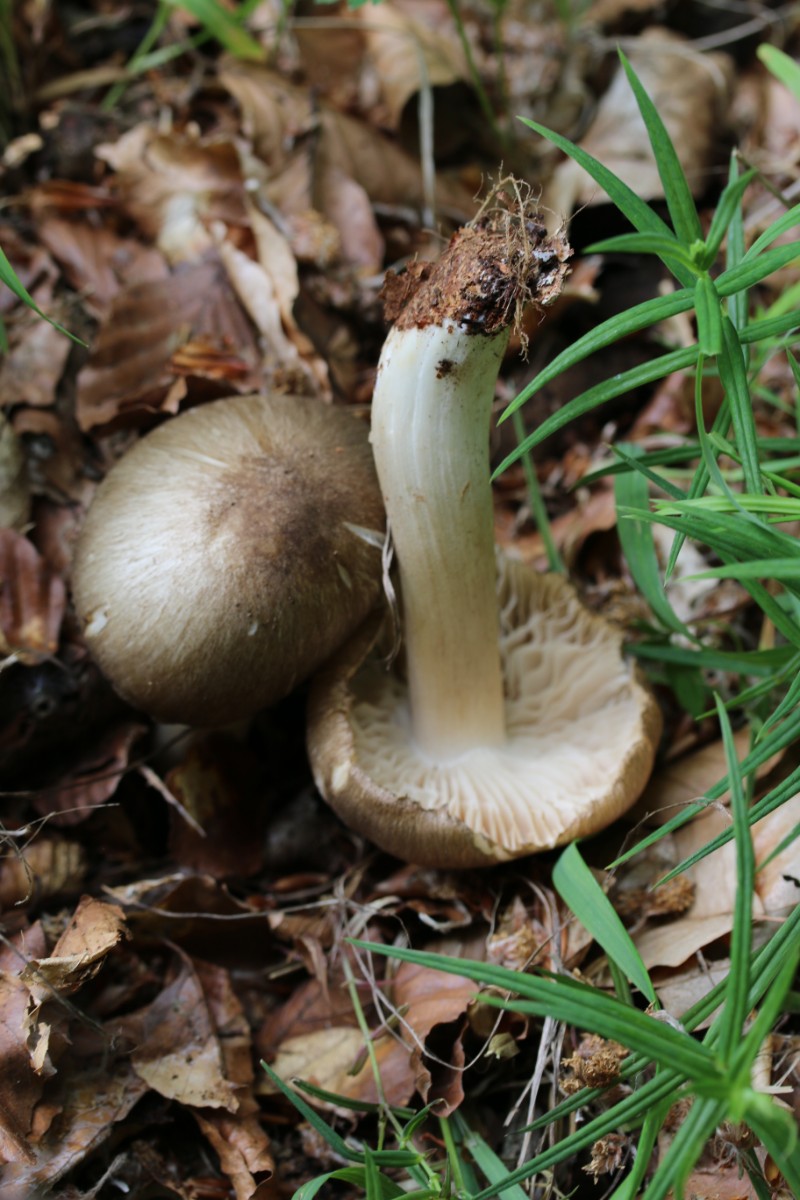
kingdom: Fungi
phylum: Basidiomycota
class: Agaricomycetes
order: Agaricales
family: Tricholomataceae
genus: Megacollybia
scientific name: Megacollybia platyphylla
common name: bredbladet væbnerhat
